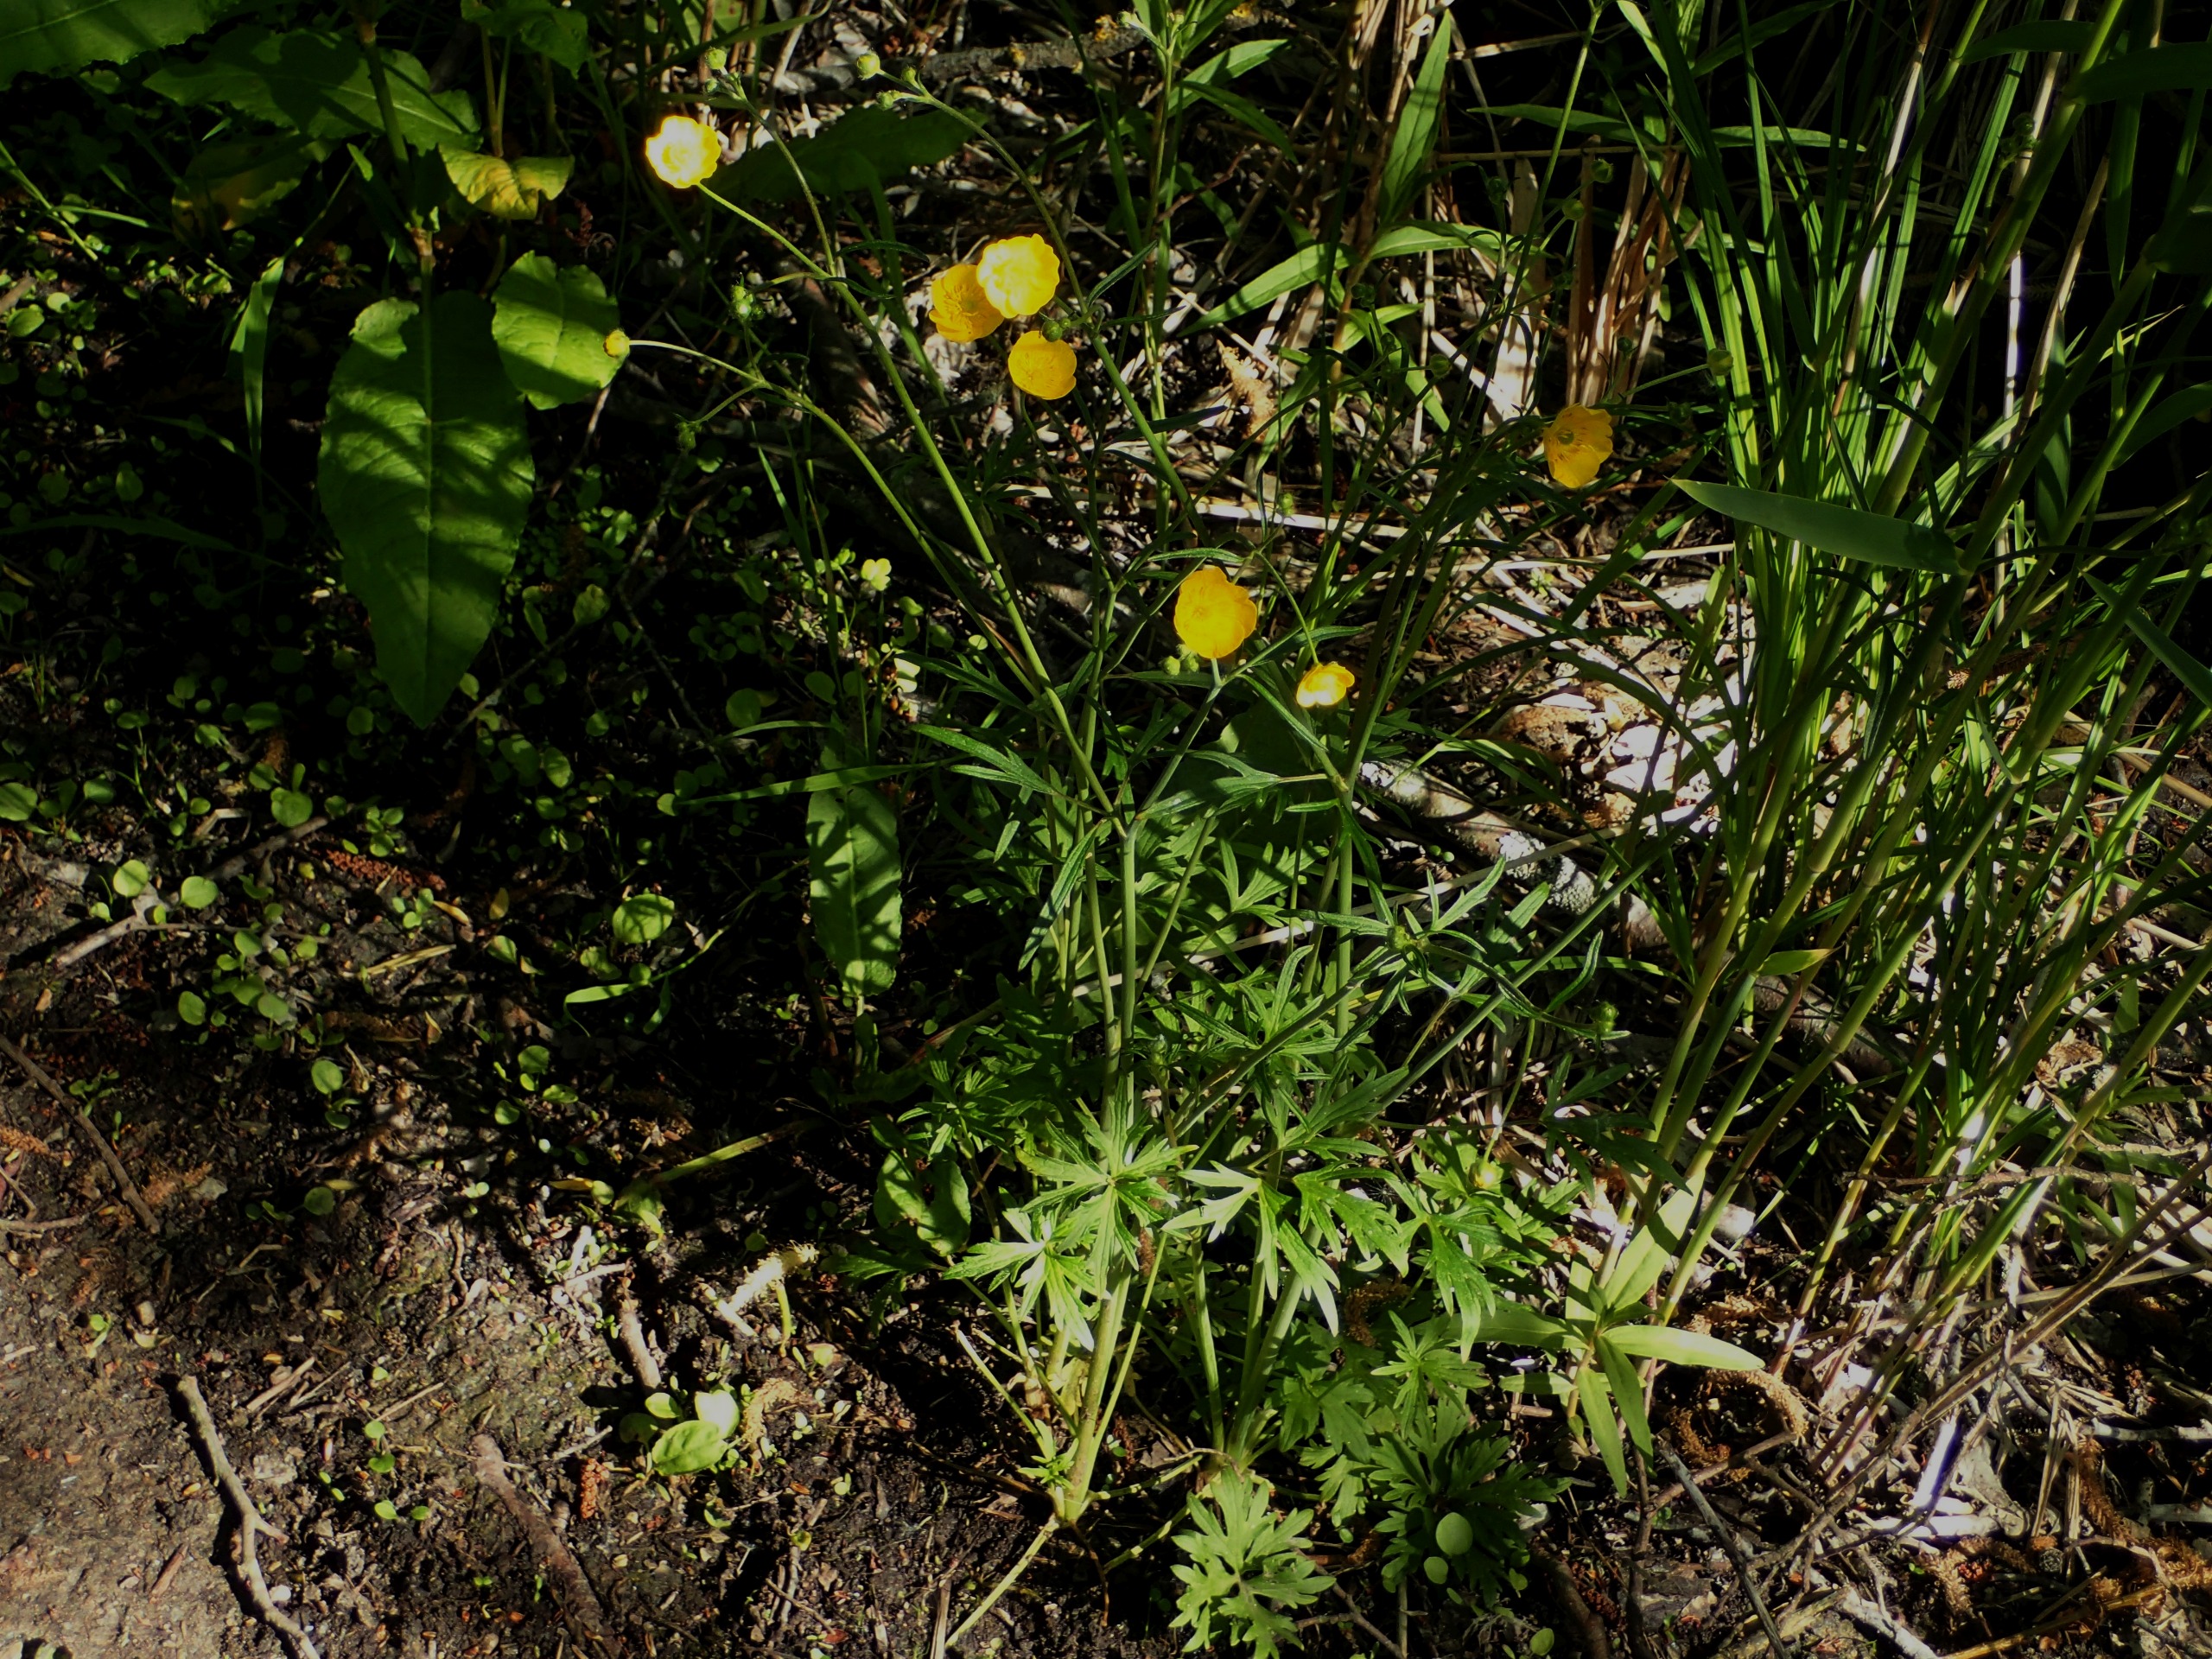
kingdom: Plantae
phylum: Tracheophyta
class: Magnoliopsida
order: Ranunculales
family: Ranunculaceae
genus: Ranunculus
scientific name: Ranunculus acris
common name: Bidende ranunkel
